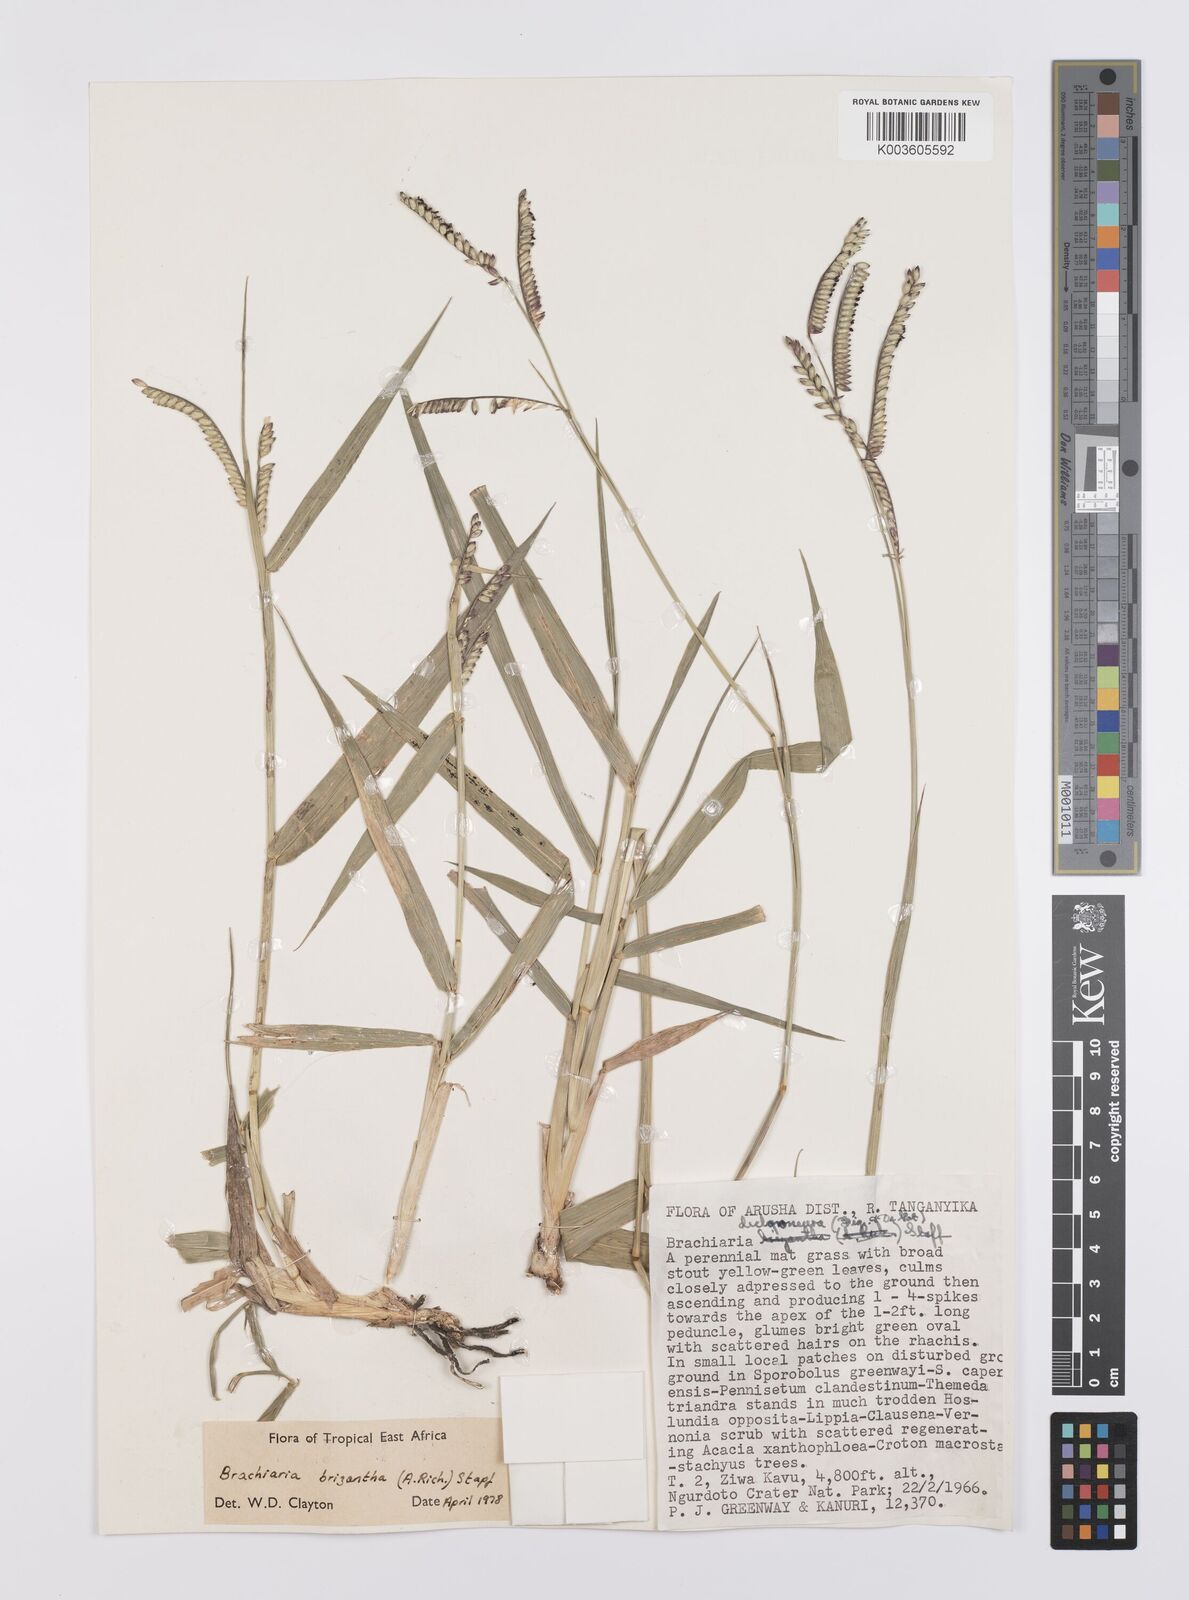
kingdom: Plantae
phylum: Tracheophyta
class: Liliopsida
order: Poales
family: Poaceae
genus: Urochloa
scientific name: Urochloa brizantha
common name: Palisade signalgrass
